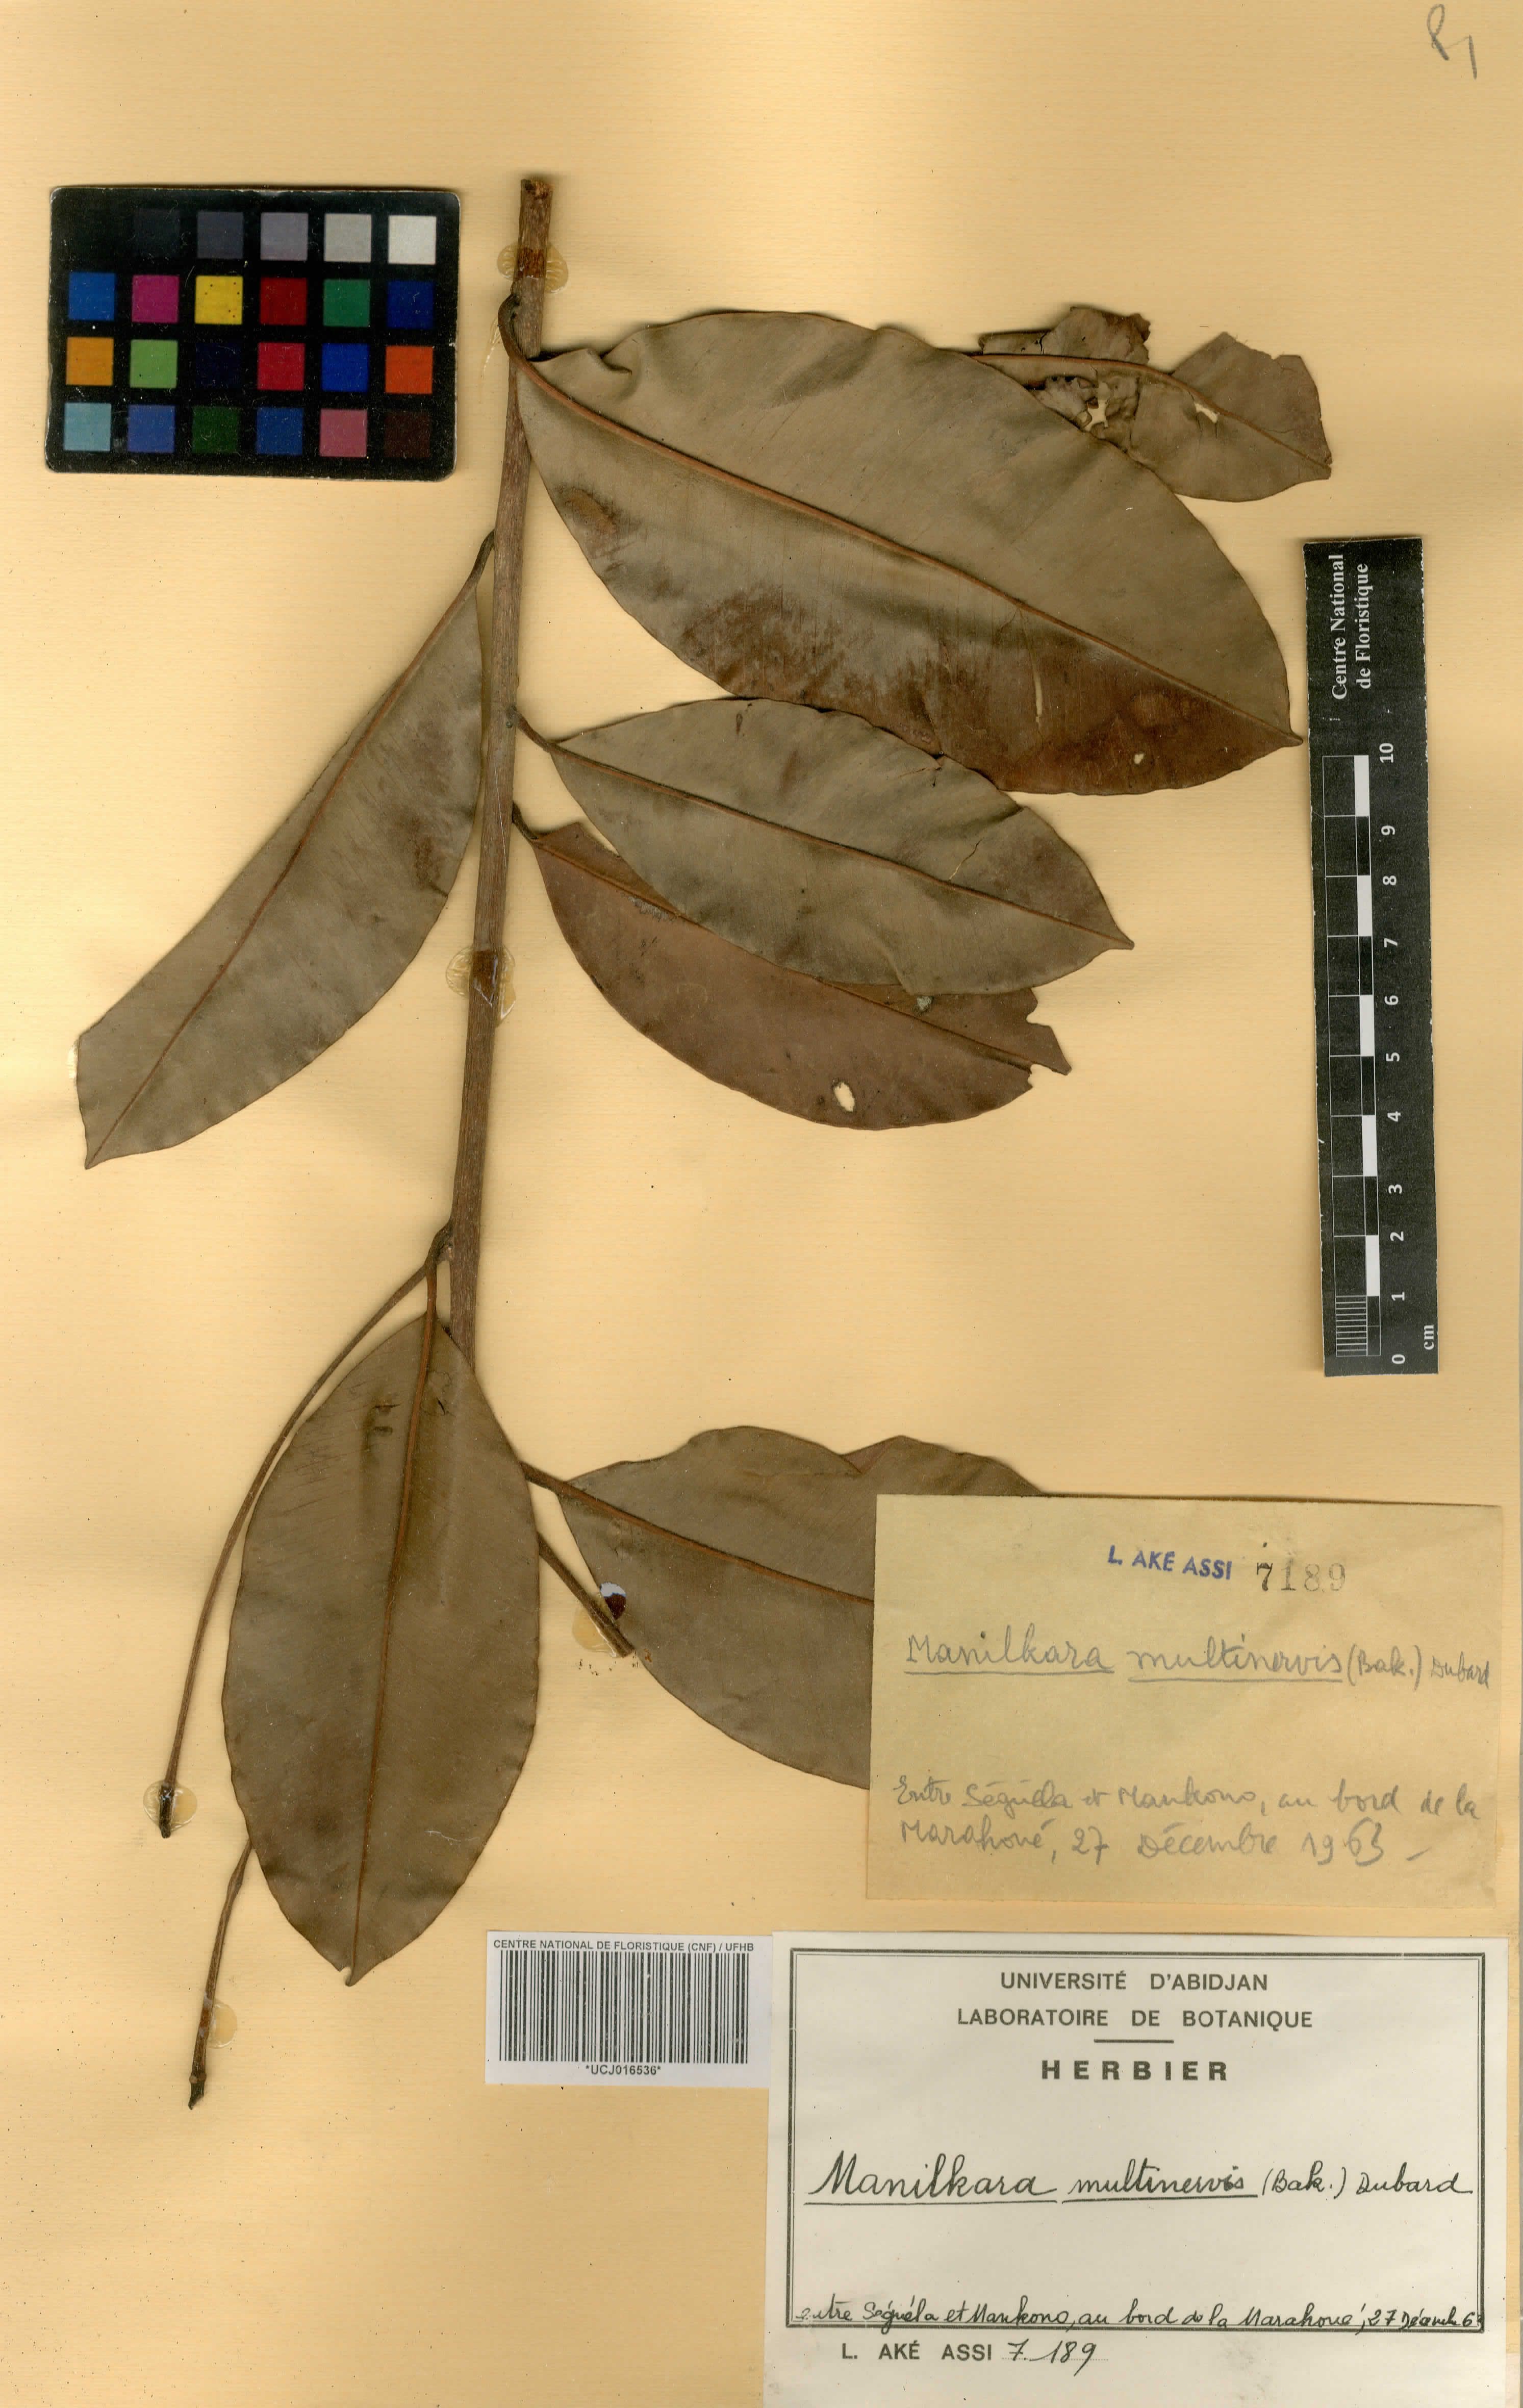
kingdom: Plantae
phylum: Tracheophyta
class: Magnoliopsida
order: Ericales
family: Sapotaceae
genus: Manilkara
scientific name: Manilkara obovata
